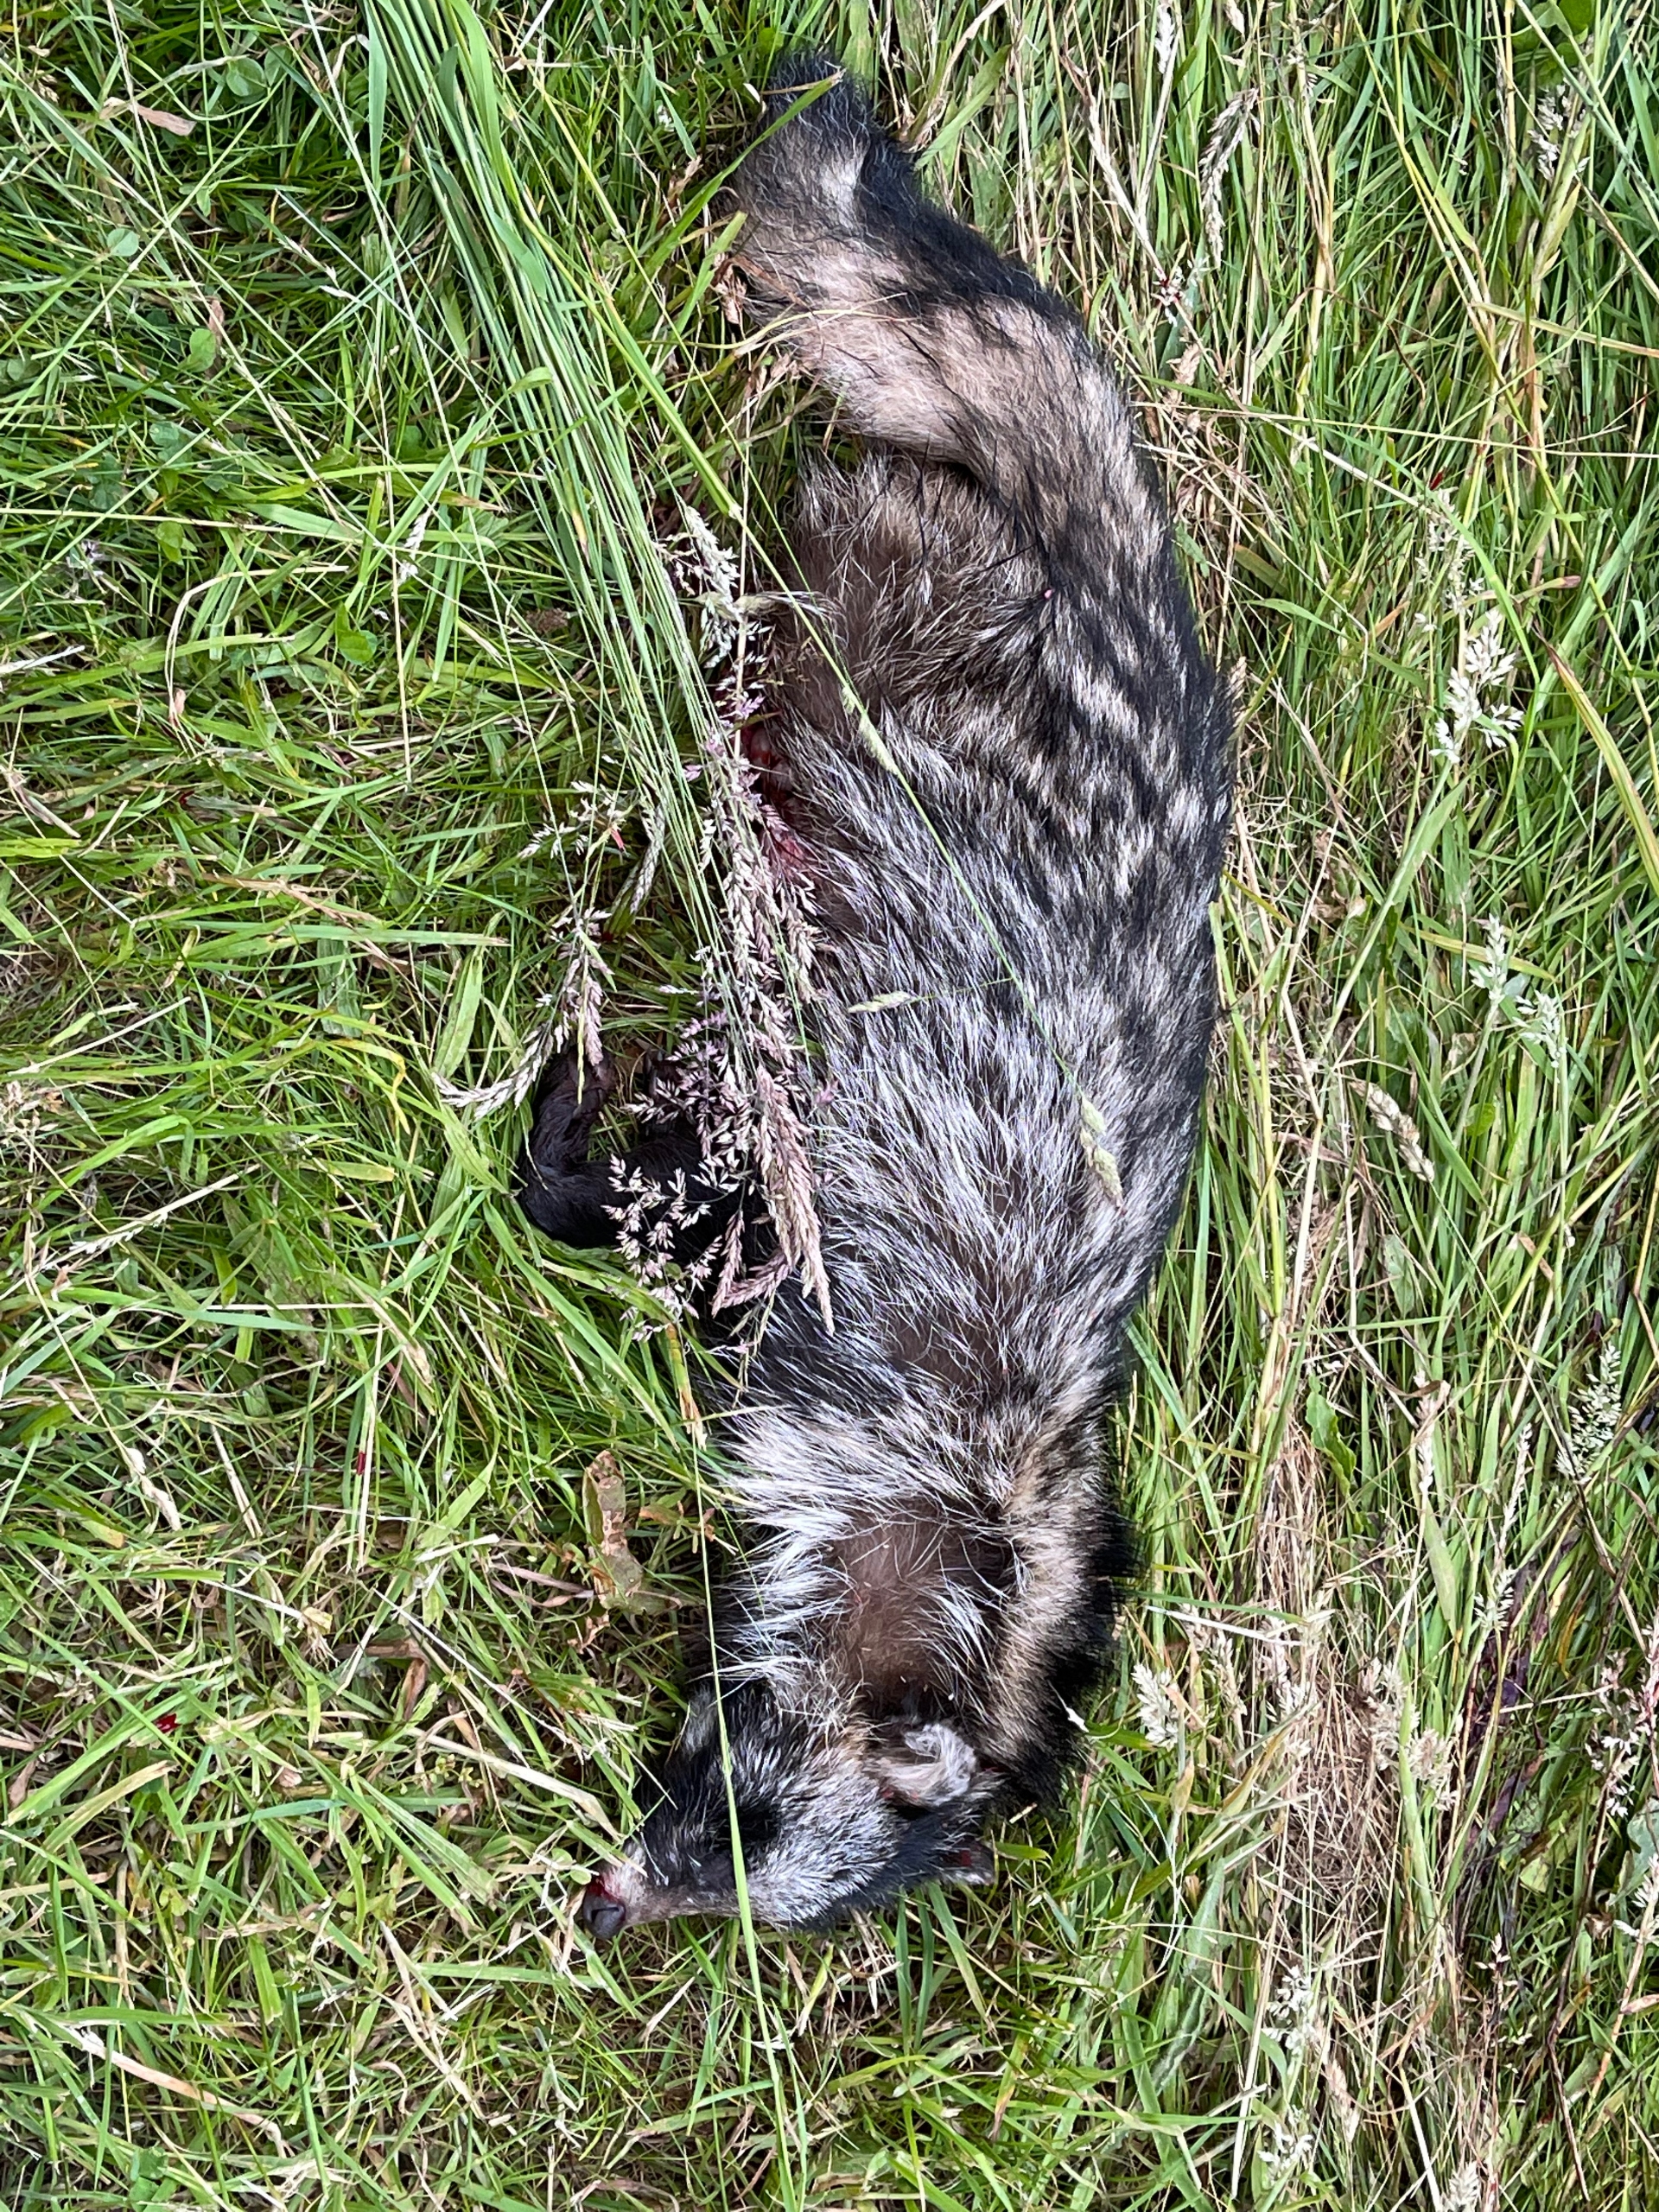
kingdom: Animalia
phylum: Chordata
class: Mammalia
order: Carnivora
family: Canidae
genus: Nyctereutes
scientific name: Nyctereutes procyonoides
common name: Mårhund
